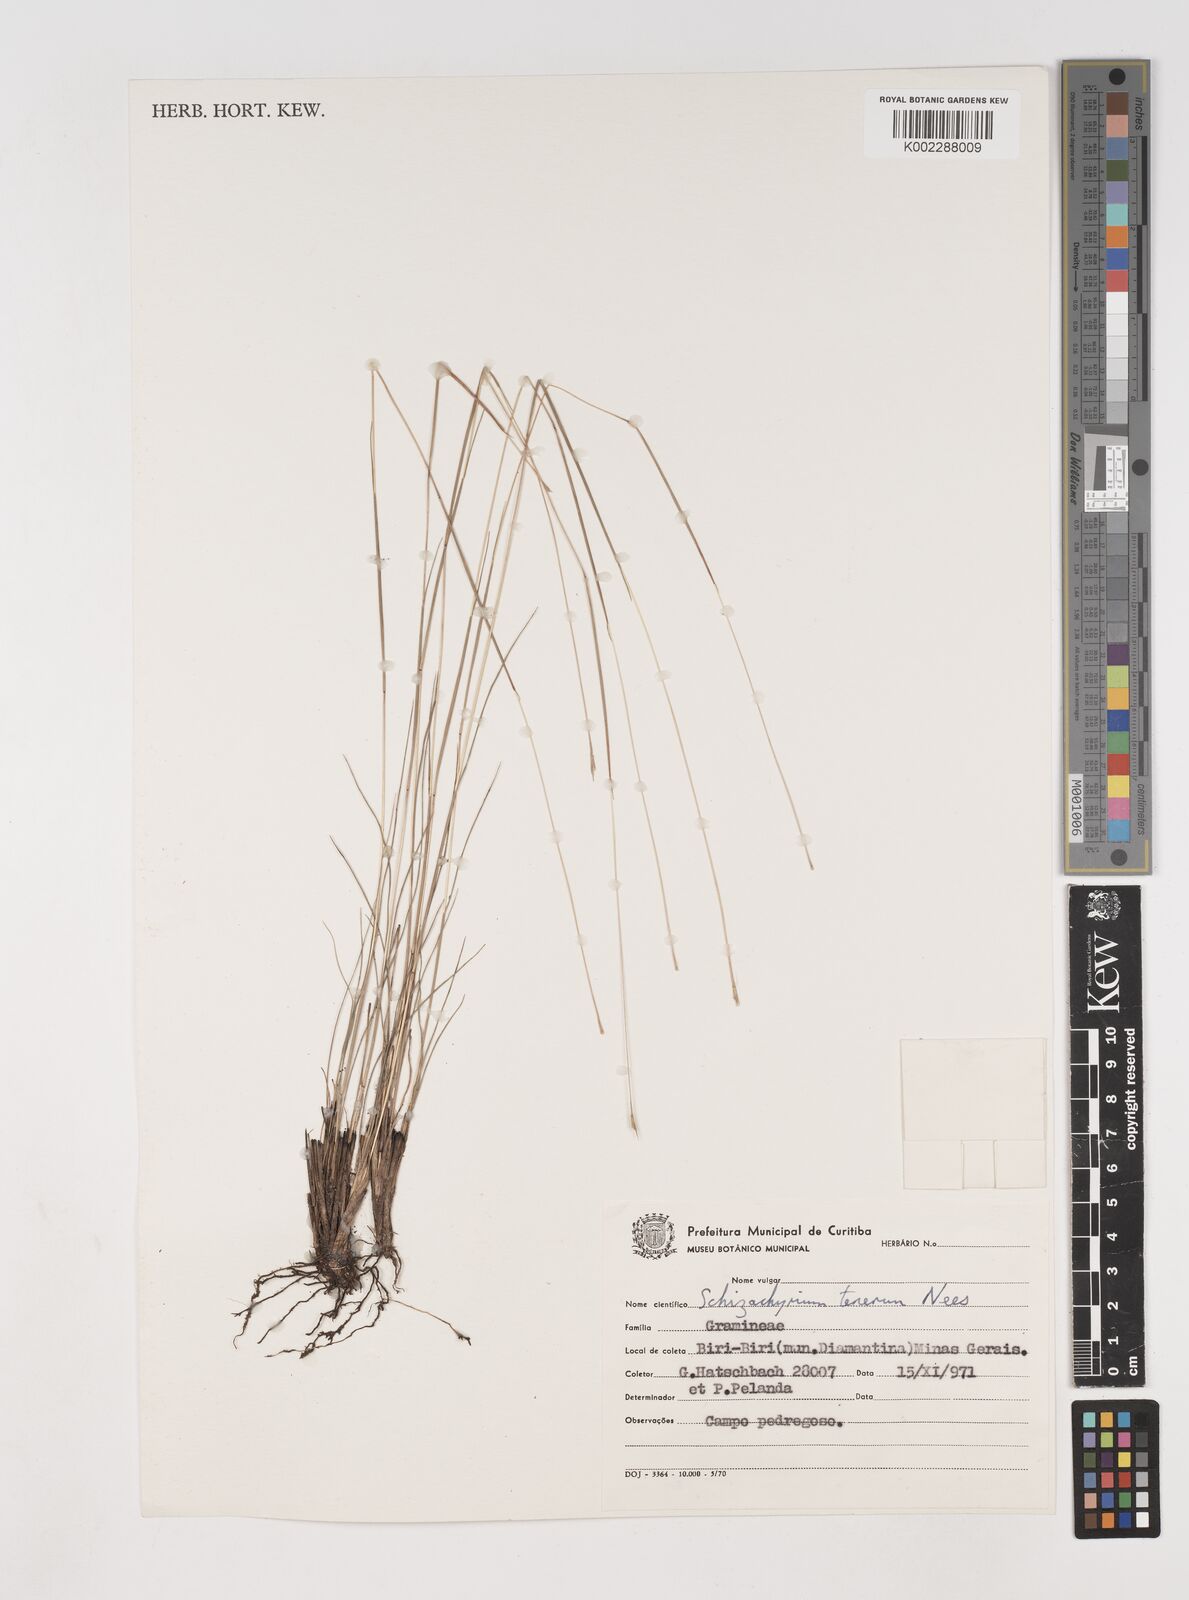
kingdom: Plantae
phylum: Tracheophyta
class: Liliopsida
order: Poales
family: Poaceae
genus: Andropogon
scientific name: Andropogon tener
